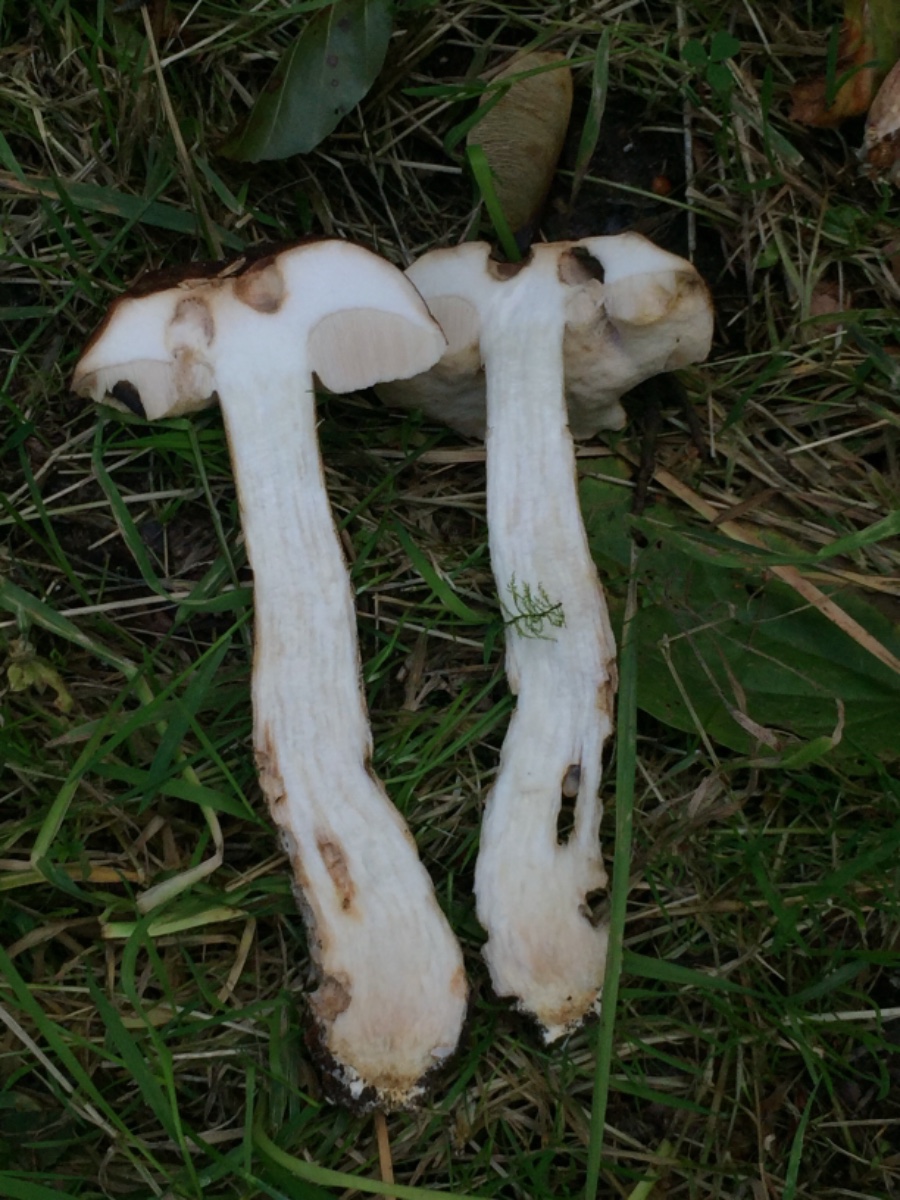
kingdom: Fungi
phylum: Basidiomycota
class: Agaricomycetes
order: Boletales
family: Boletaceae
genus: Leccinum
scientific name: Leccinum scabrum
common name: brun skælrørhat
